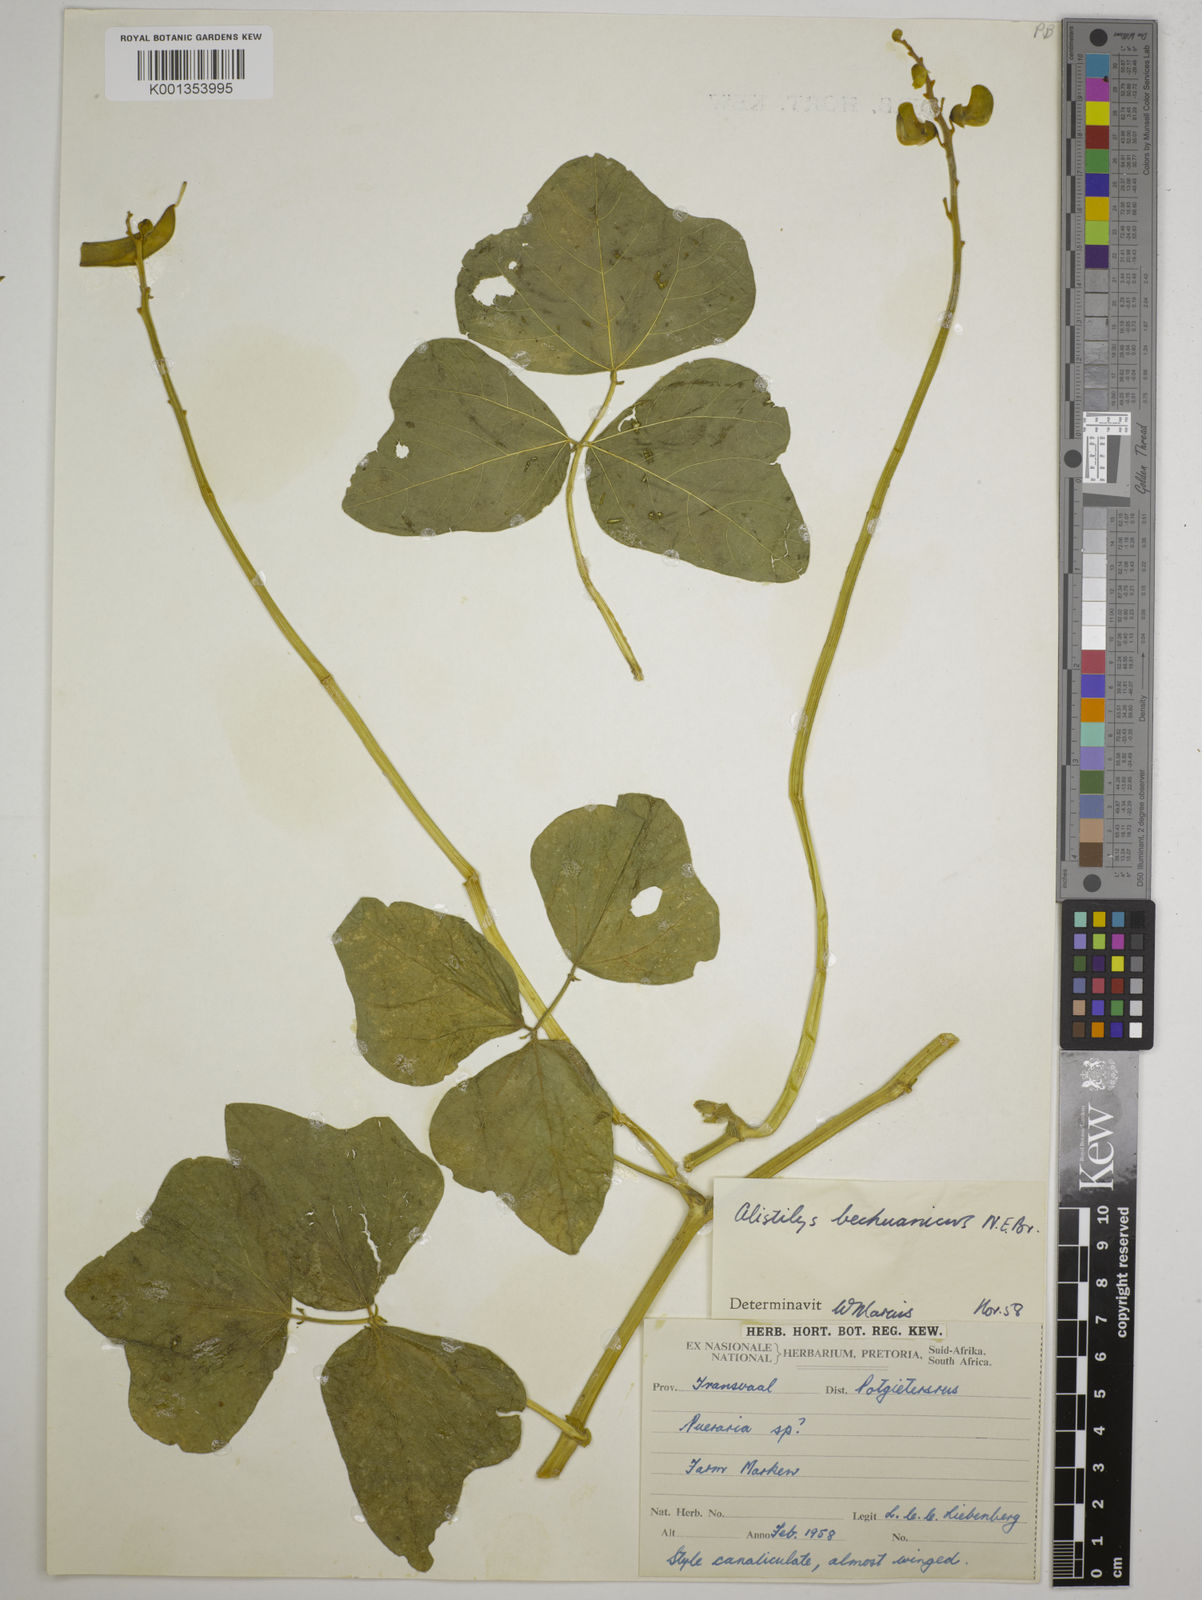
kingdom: Plantae
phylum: Tracheophyta
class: Magnoliopsida
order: Fabales
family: Fabaceae
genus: Alistilus
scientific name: Alistilus bechuanicus
